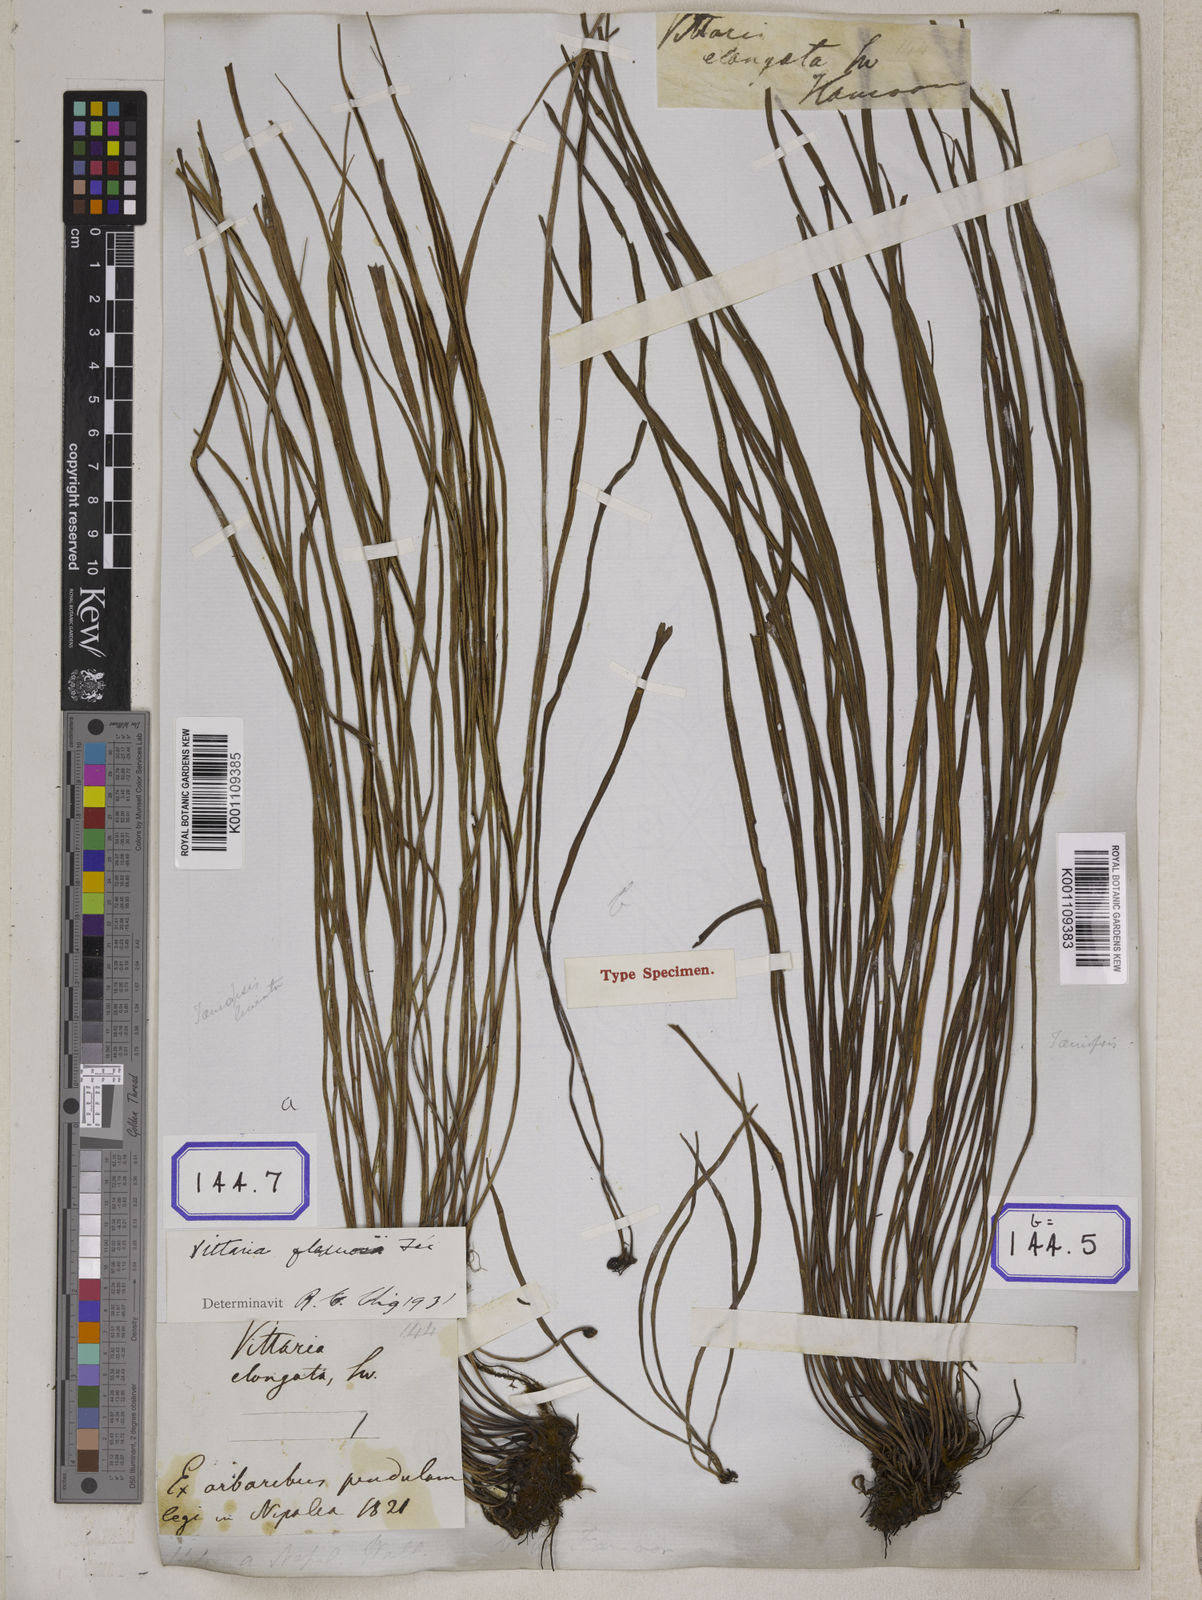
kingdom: Plantae
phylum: Tracheophyta
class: Polypodiopsida
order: Polypodiales
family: Pteridaceae
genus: Haplopteris
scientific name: Haplopteris elongata
